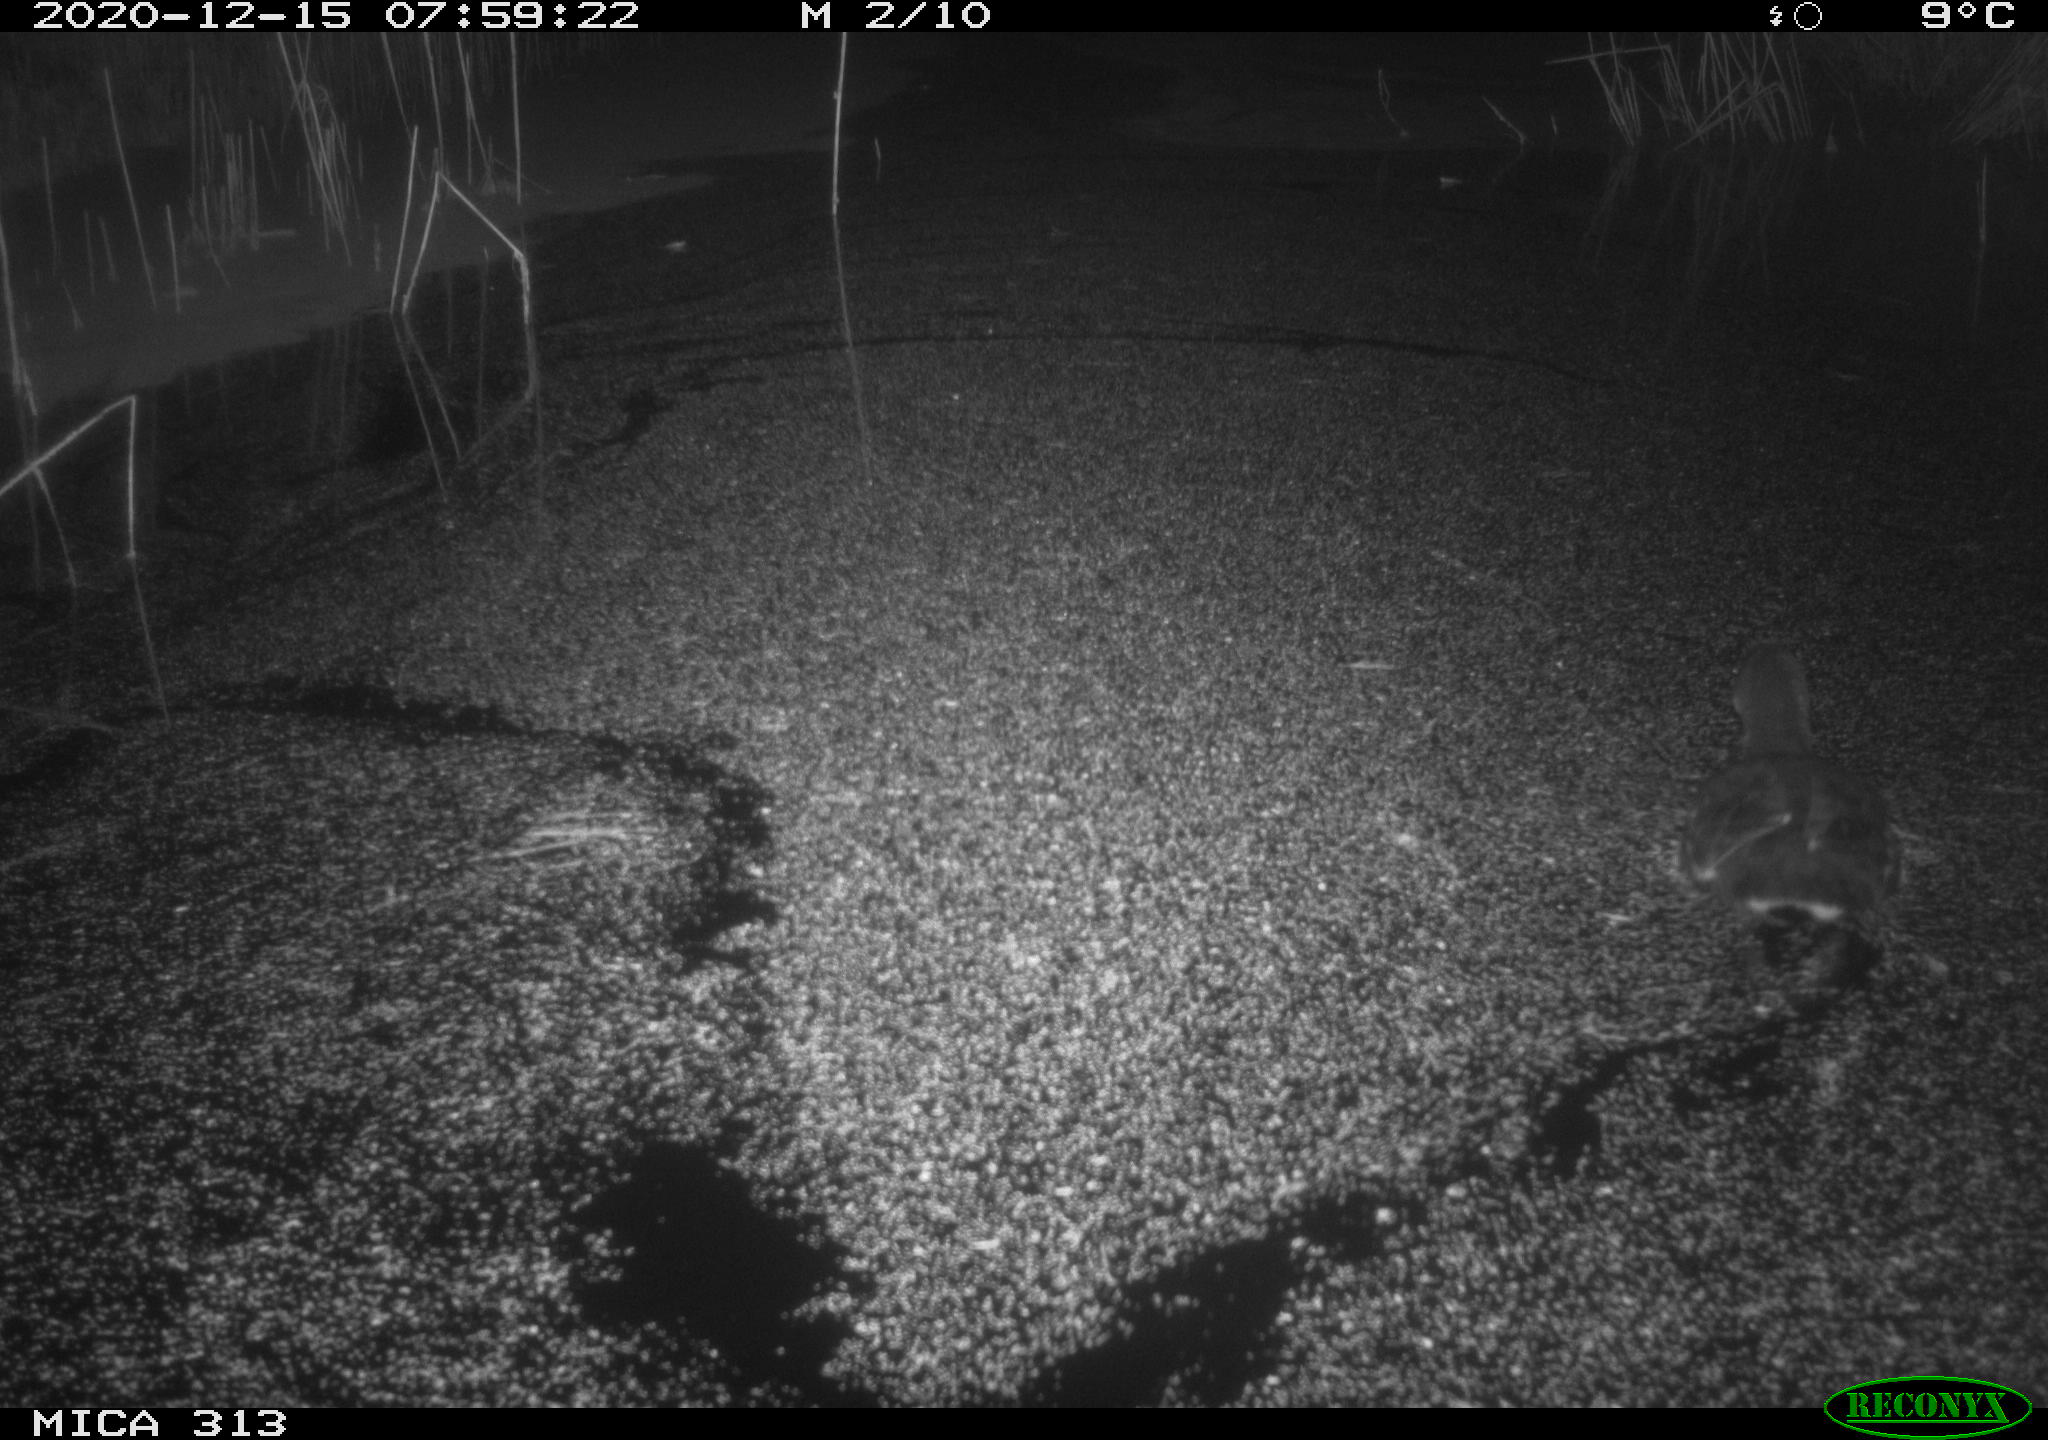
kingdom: Animalia
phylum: Chordata
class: Aves
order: Gruiformes
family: Rallidae
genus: Gallinula
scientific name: Gallinula chloropus
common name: Common moorhen
